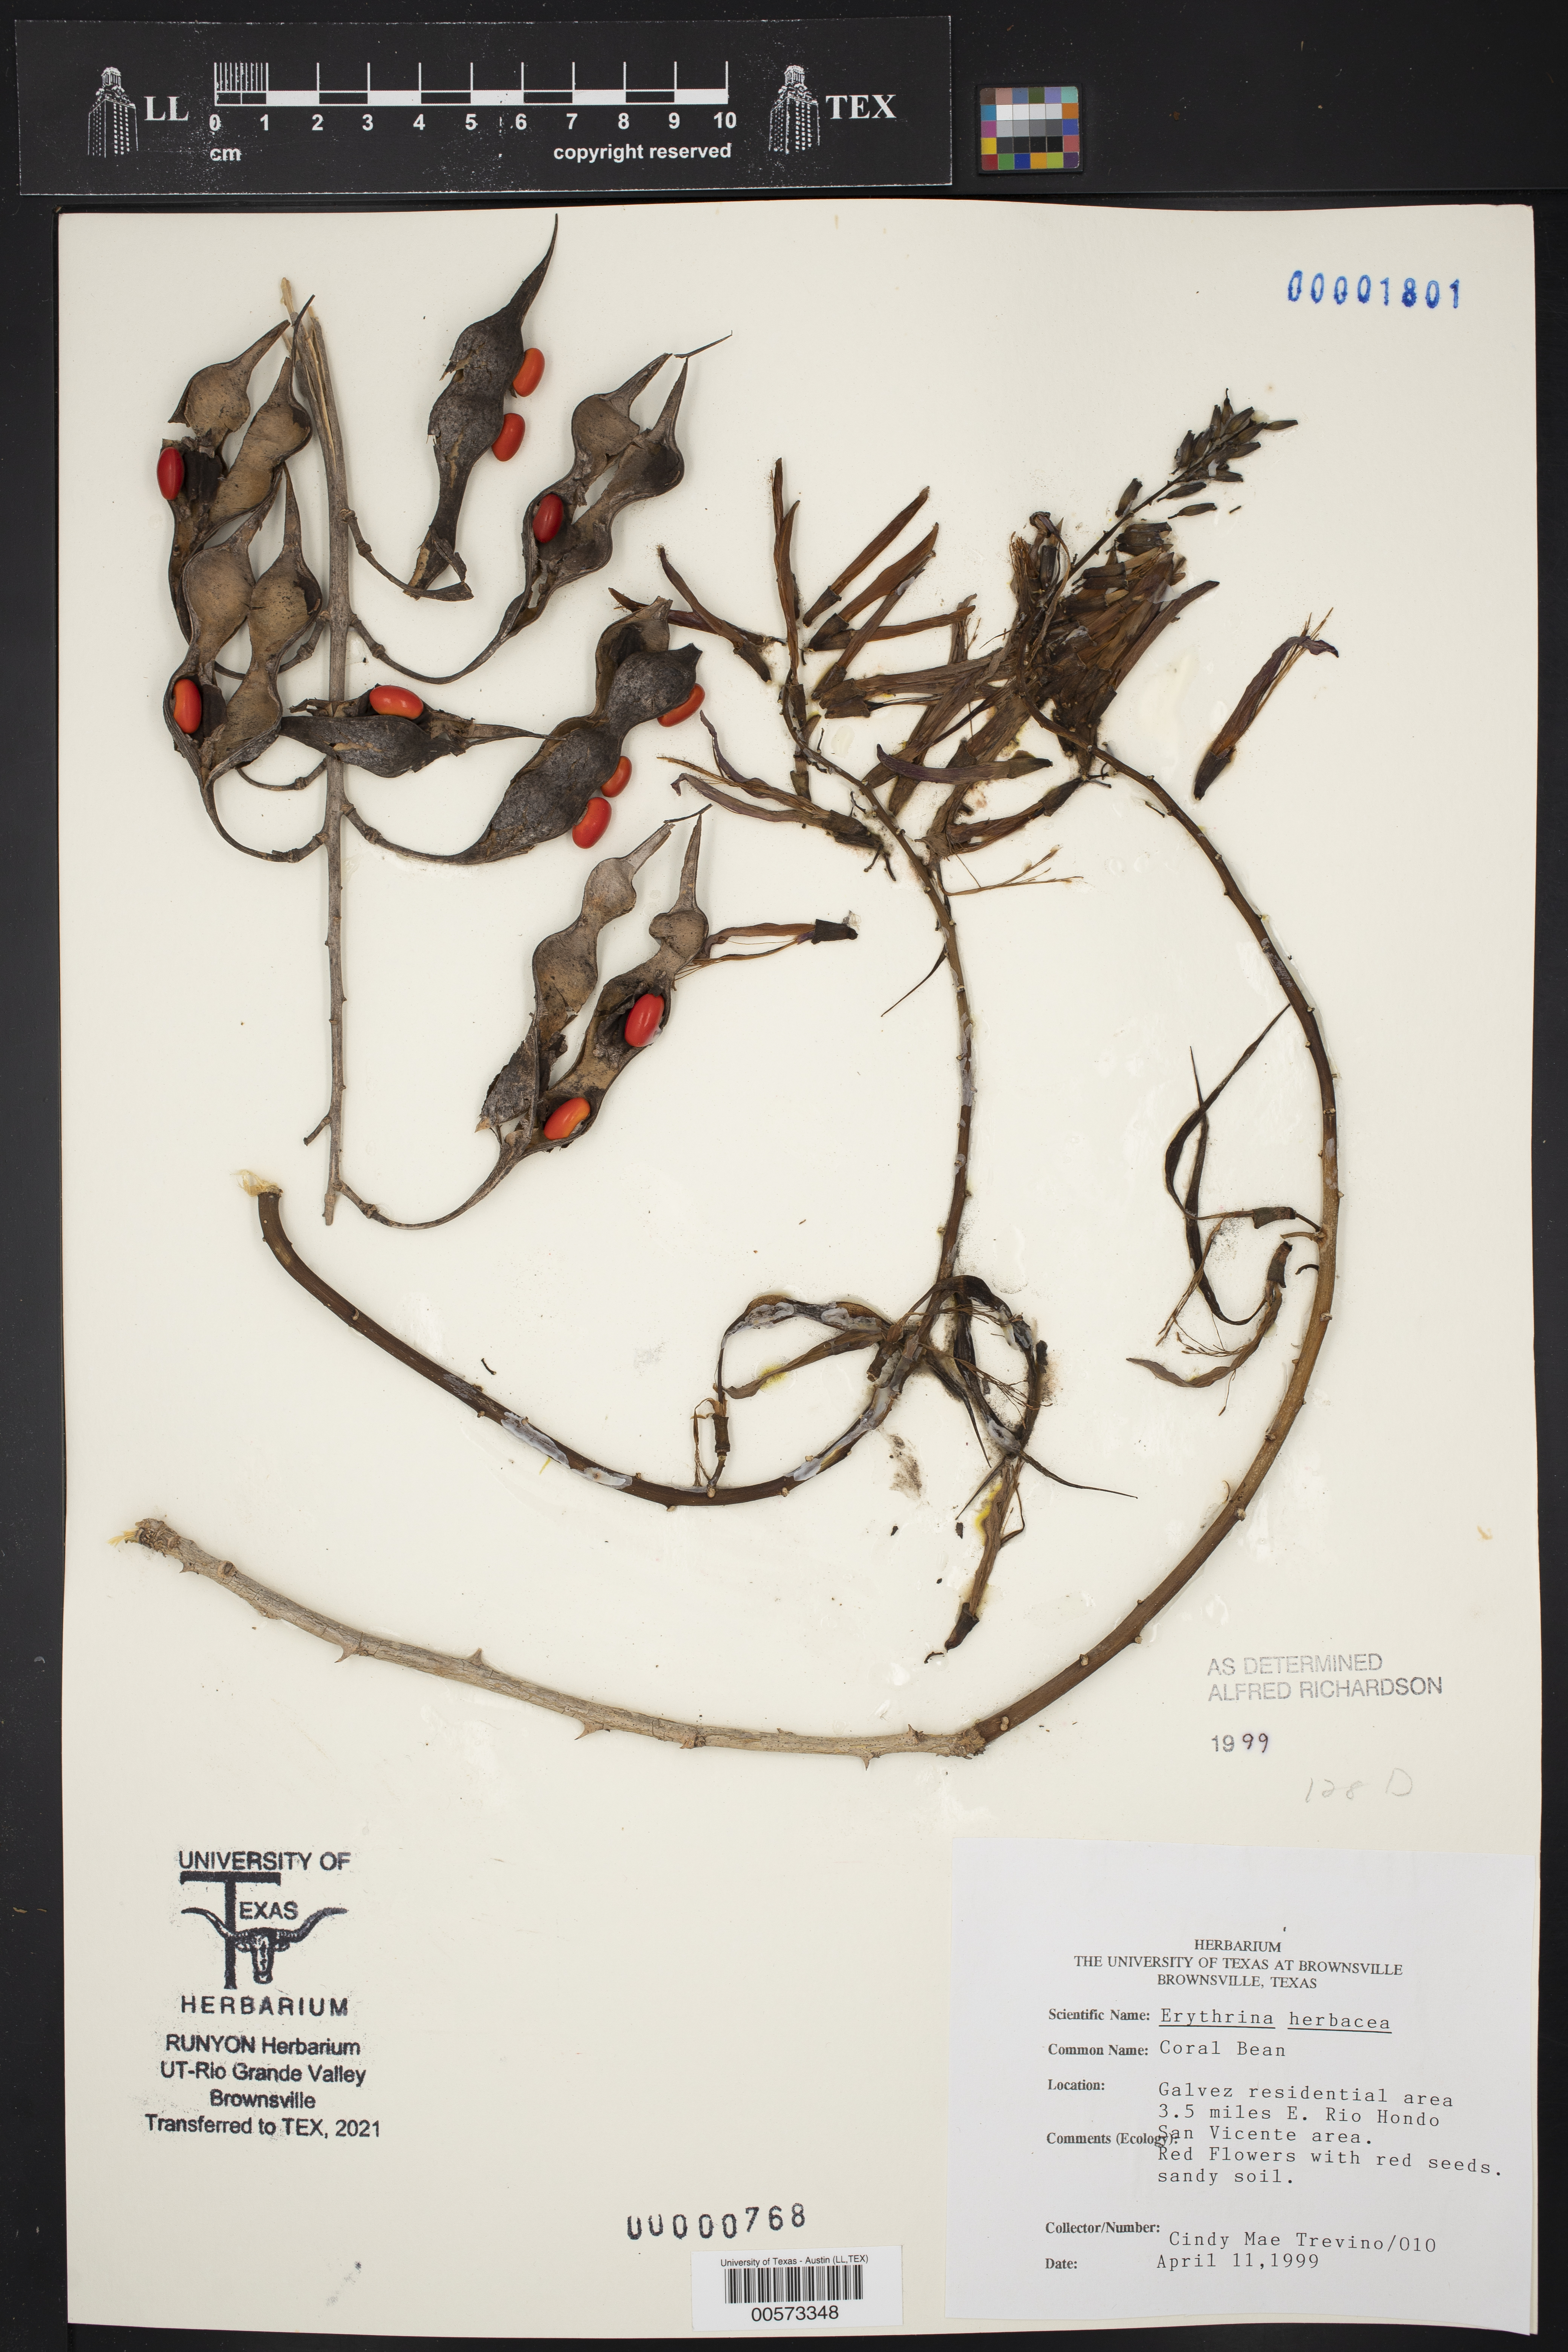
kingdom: Plantae
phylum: Tracheophyta
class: Magnoliopsida
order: Fabales
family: Fabaceae
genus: Erythrina
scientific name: Erythrina herbacea
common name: Coral-bean
